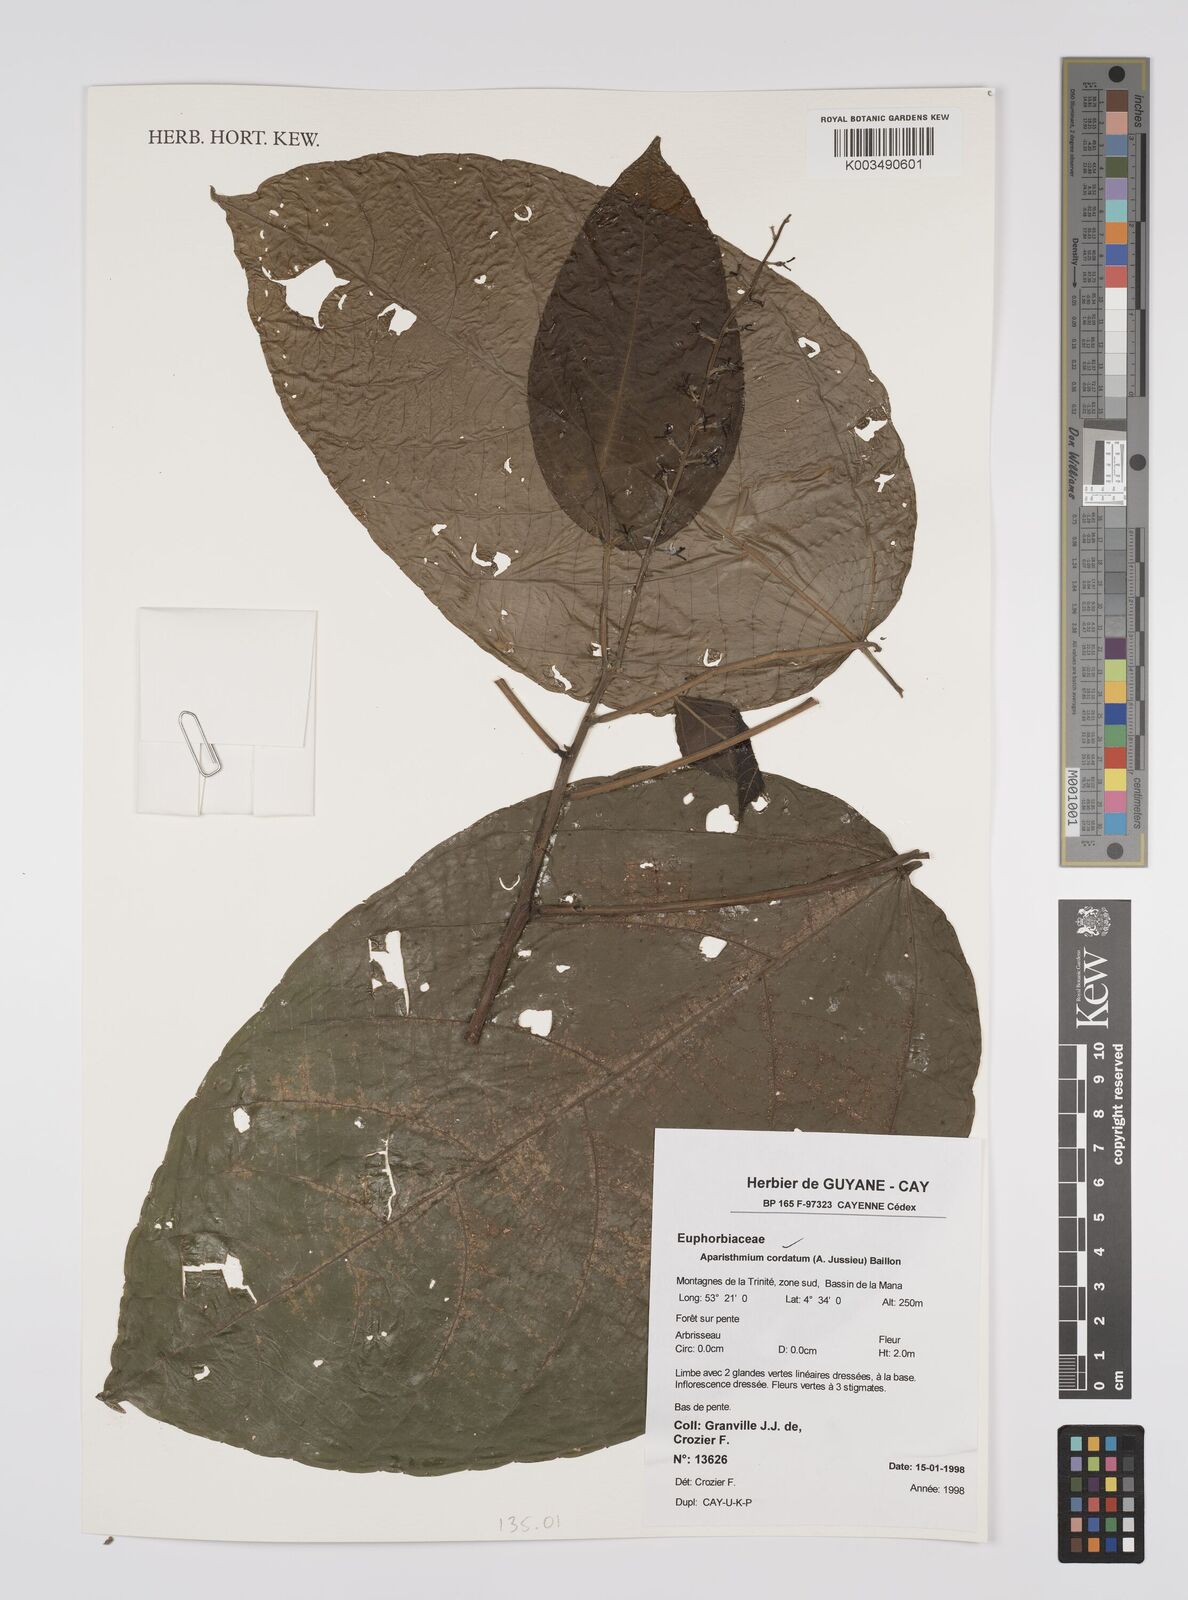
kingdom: Plantae
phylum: Tracheophyta
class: Magnoliopsida
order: Malpighiales
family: Euphorbiaceae
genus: Aparisthmium
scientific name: Aparisthmium cordatum
